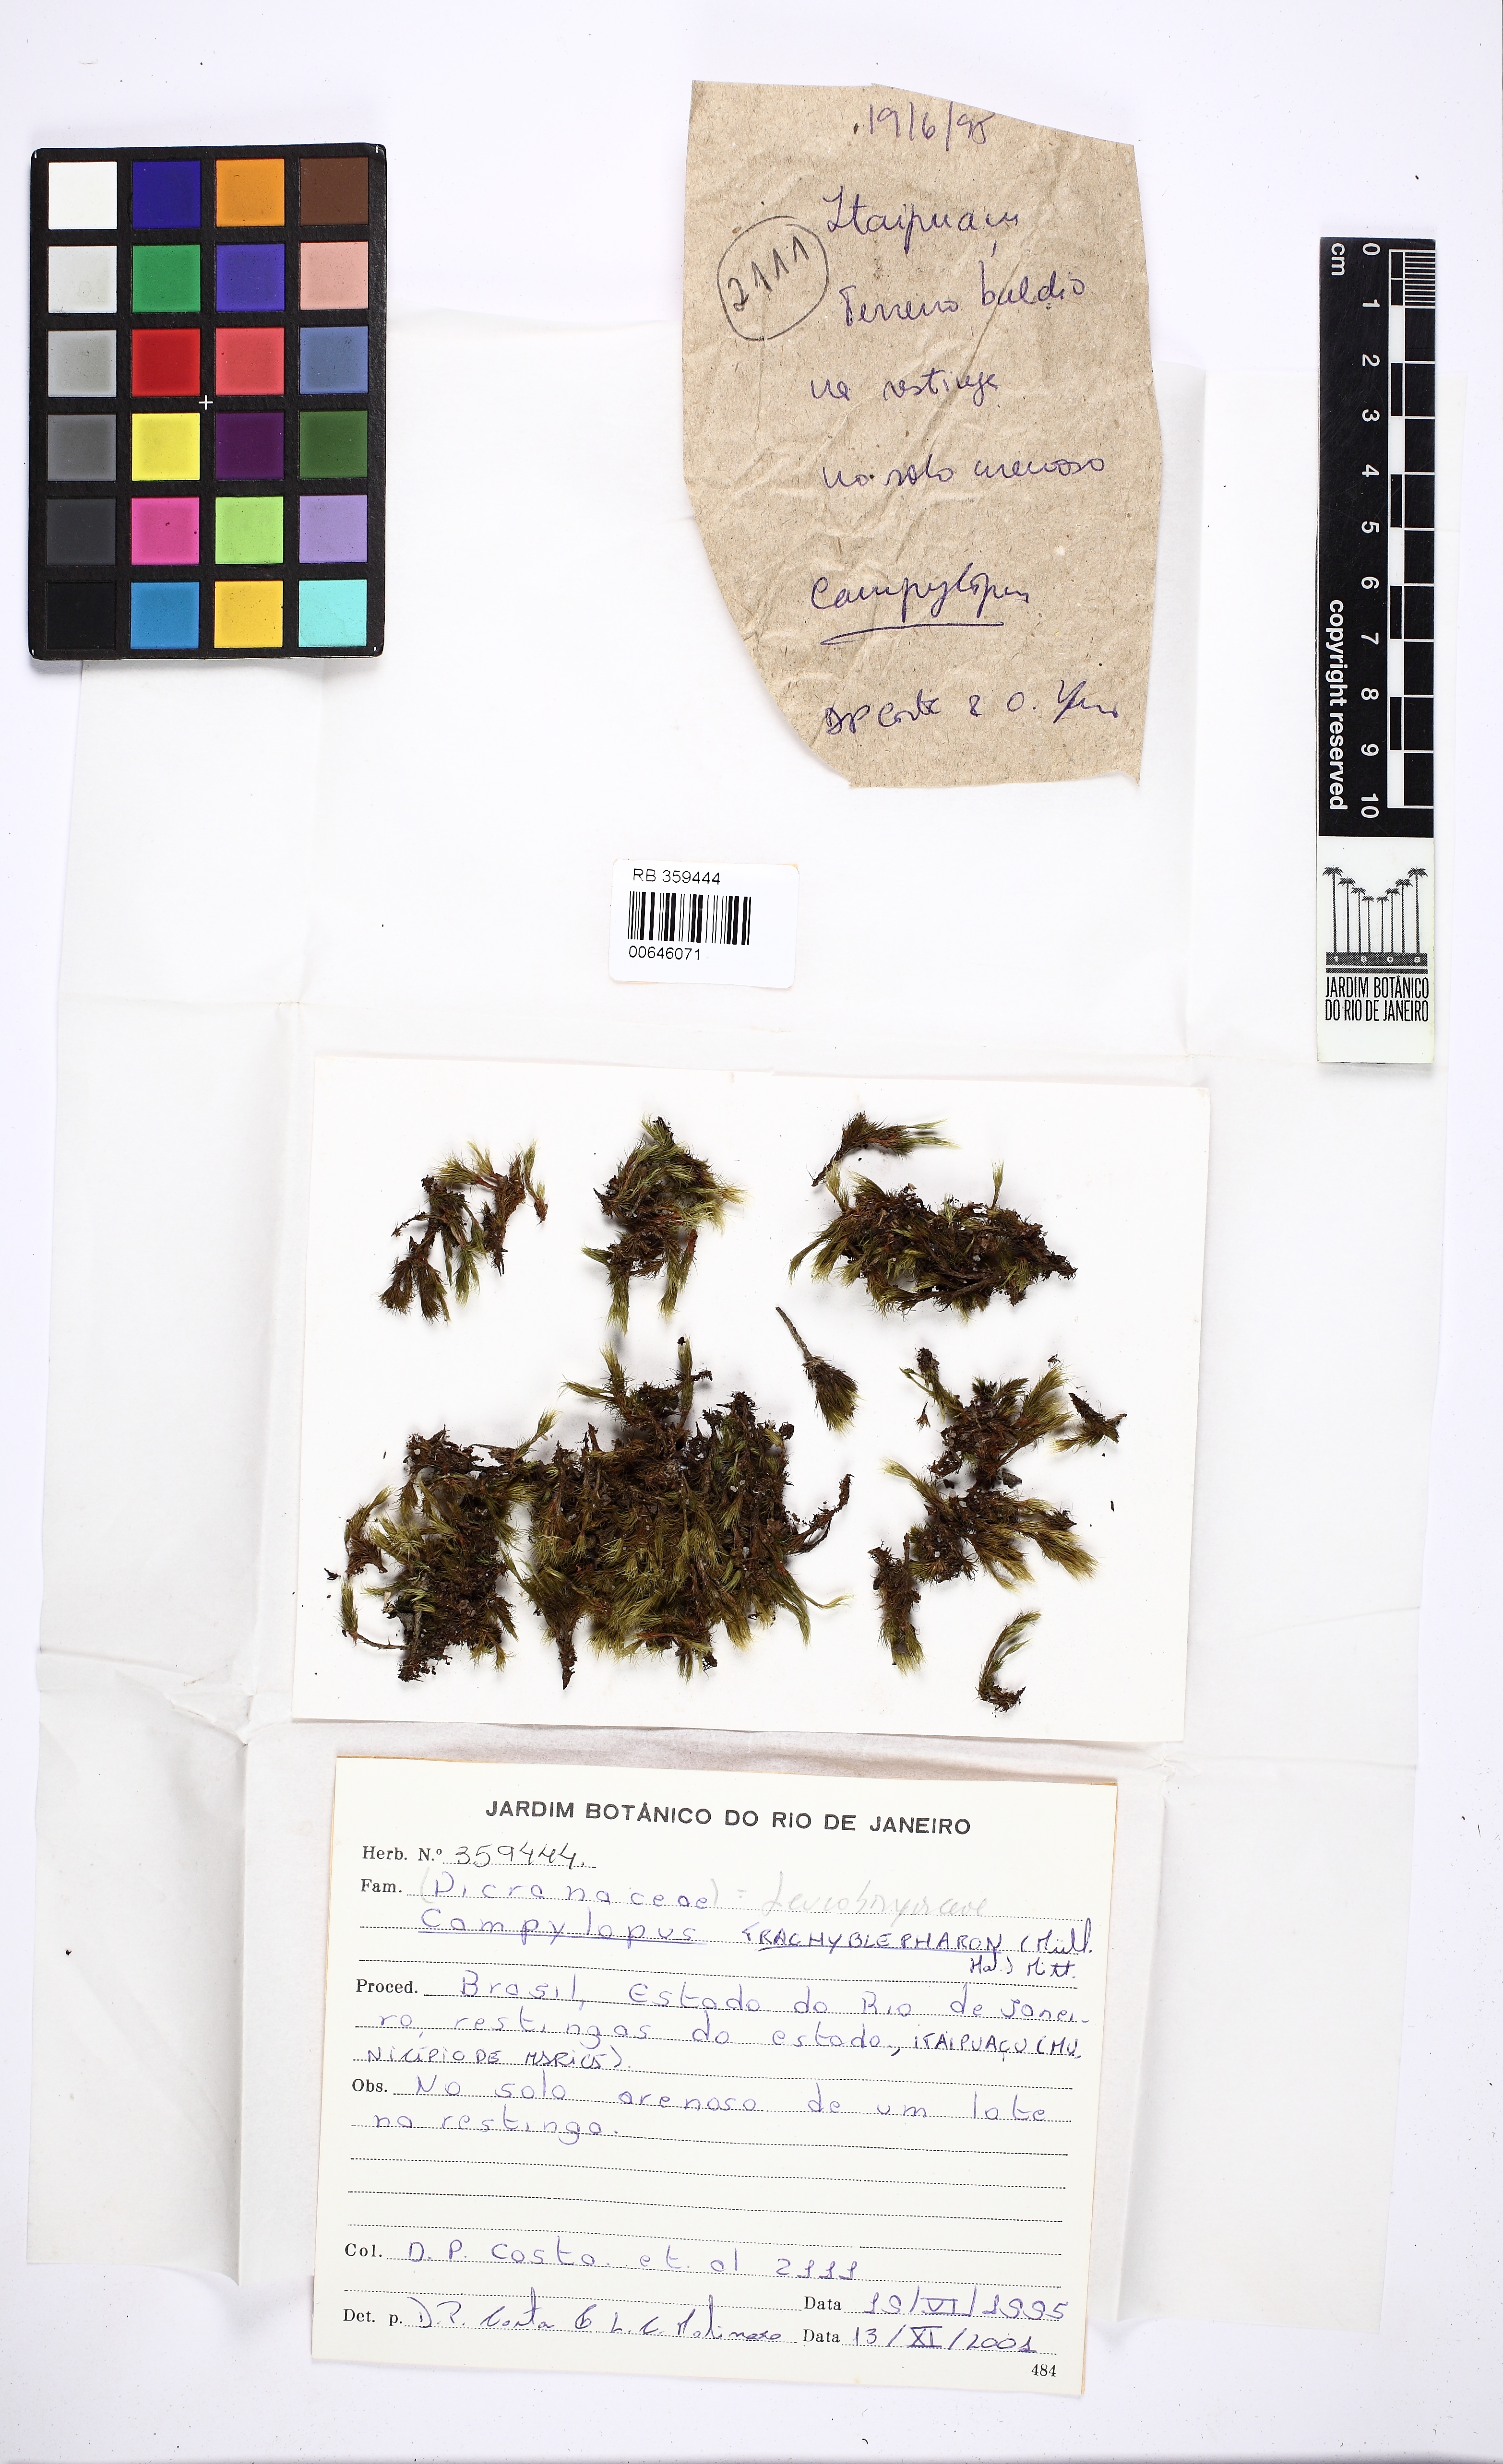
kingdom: Plantae
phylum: Bryophyta
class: Bryopsida
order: Dicranales
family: Leucobryaceae
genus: Campylopus
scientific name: Campylopus trachyblepharon
